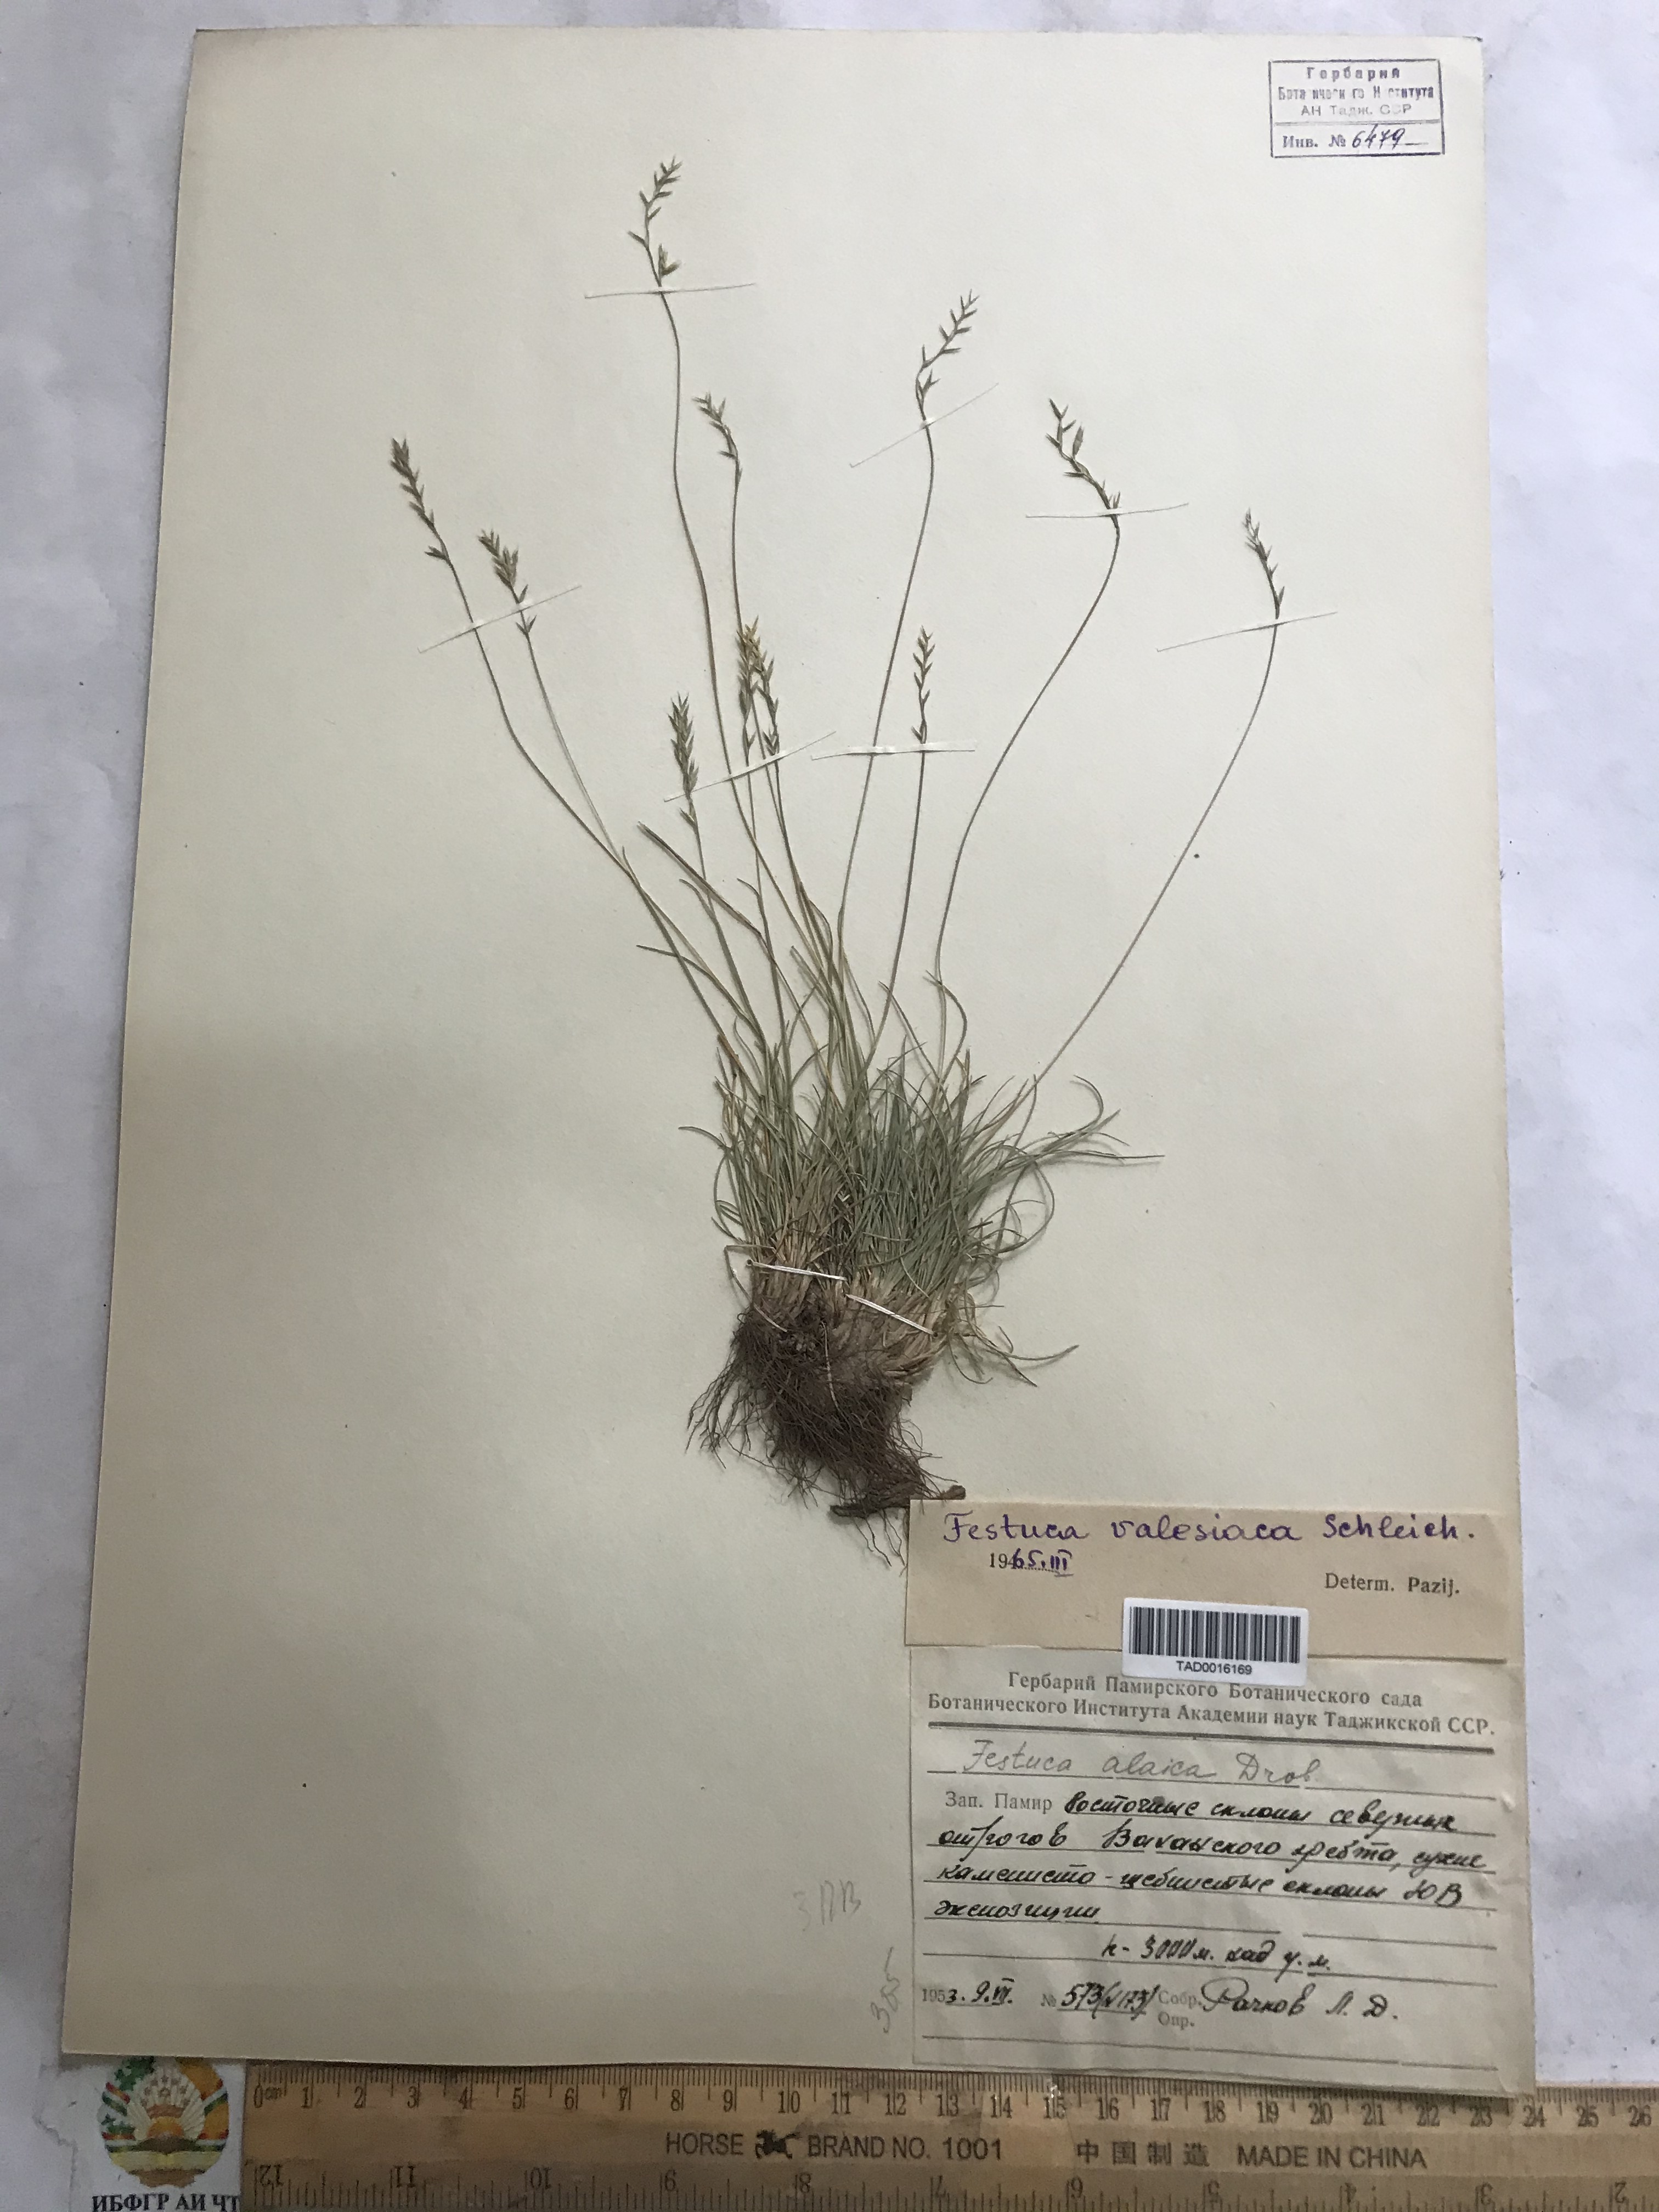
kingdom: Plantae
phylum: Tracheophyta
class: Liliopsida
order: Poales
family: Poaceae
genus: Festuca
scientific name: Festuca valesiaca
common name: Volga fescue
